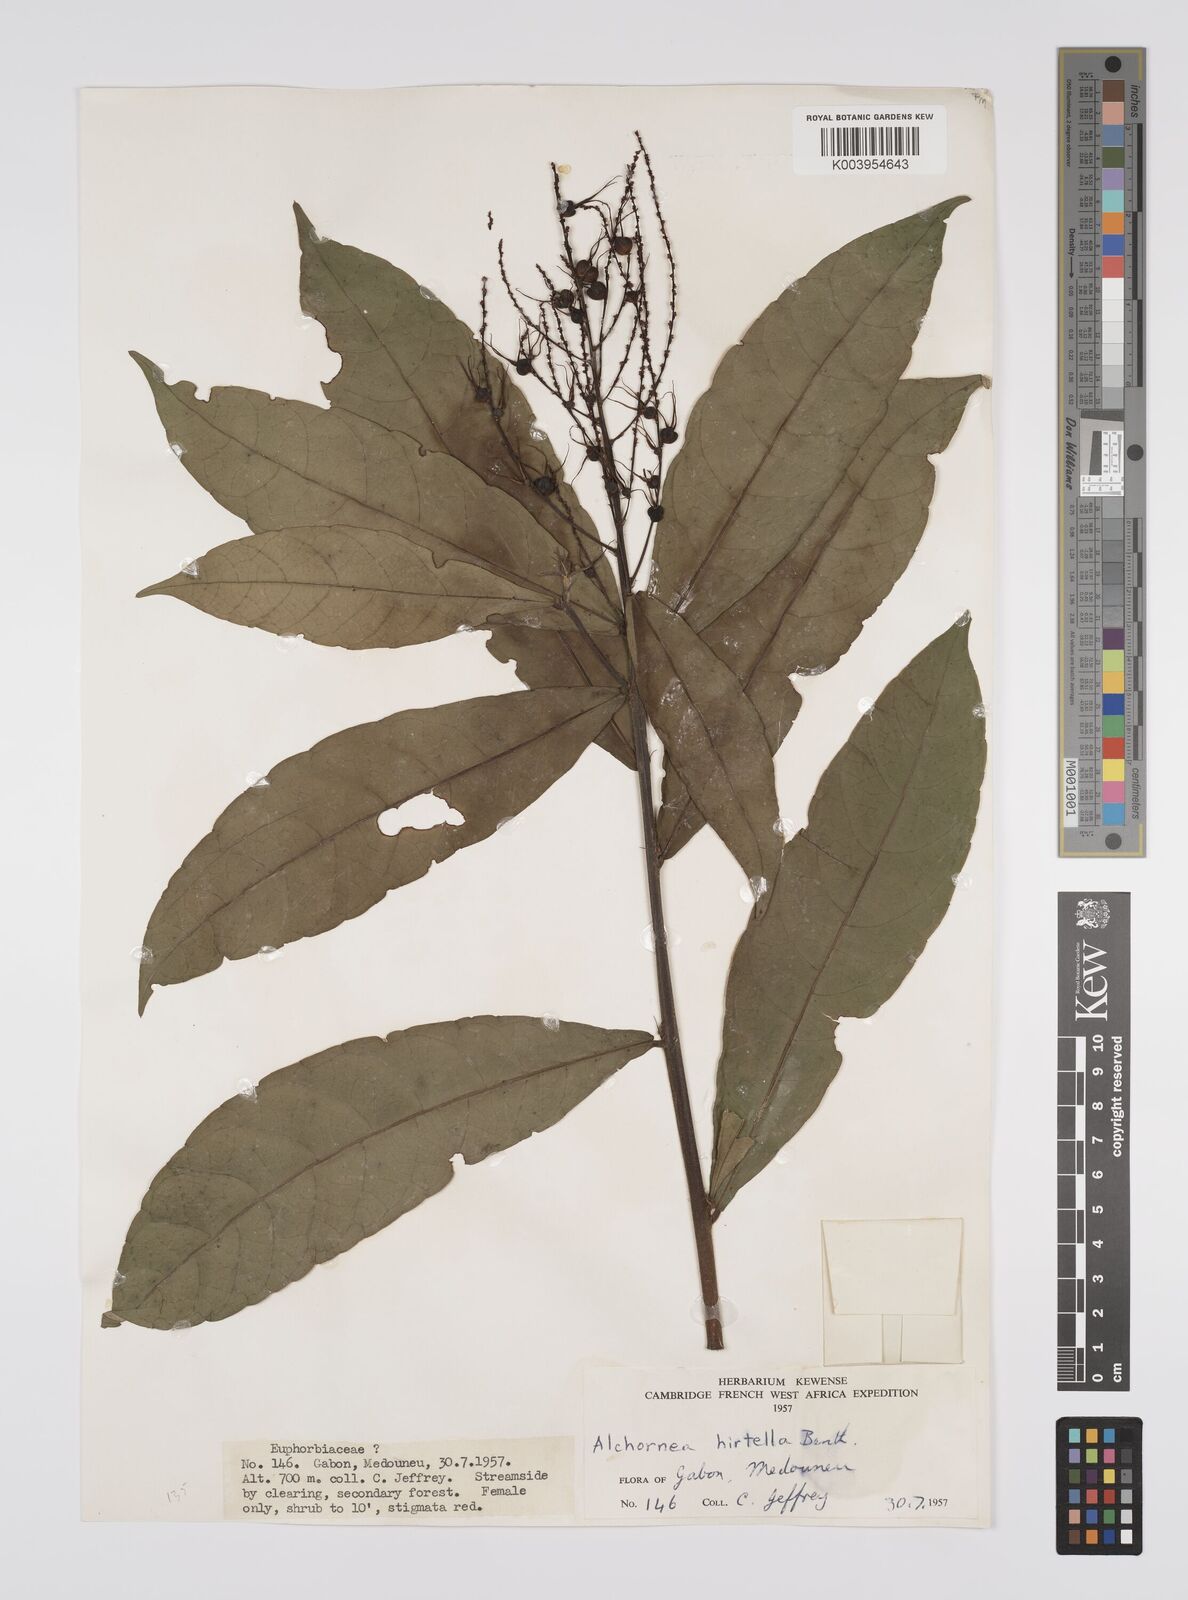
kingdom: Plantae
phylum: Tracheophyta
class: Magnoliopsida
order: Malpighiales
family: Euphorbiaceae
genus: Alchornea
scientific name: Alchornea hirtella
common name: Forest bead-string
